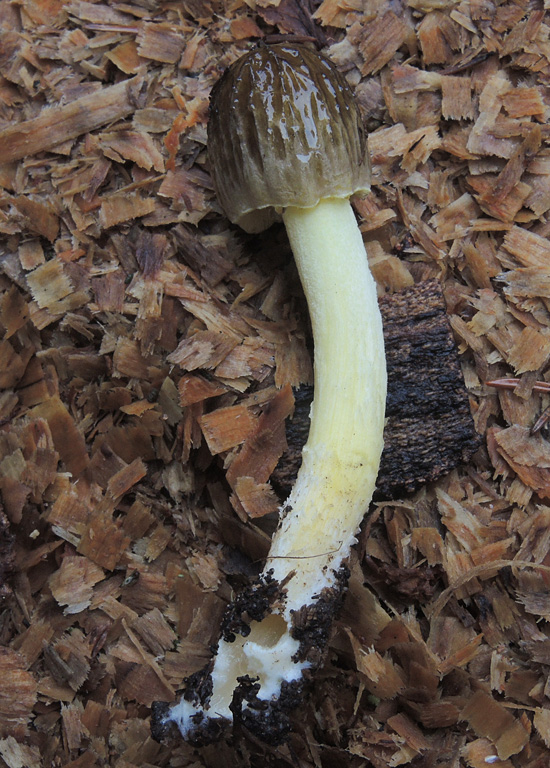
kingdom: Fungi
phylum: Basidiomycota
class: Agaricomycetes
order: Agaricales
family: Bolbitiaceae
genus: Bolbitius
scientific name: Bolbitius titubans
